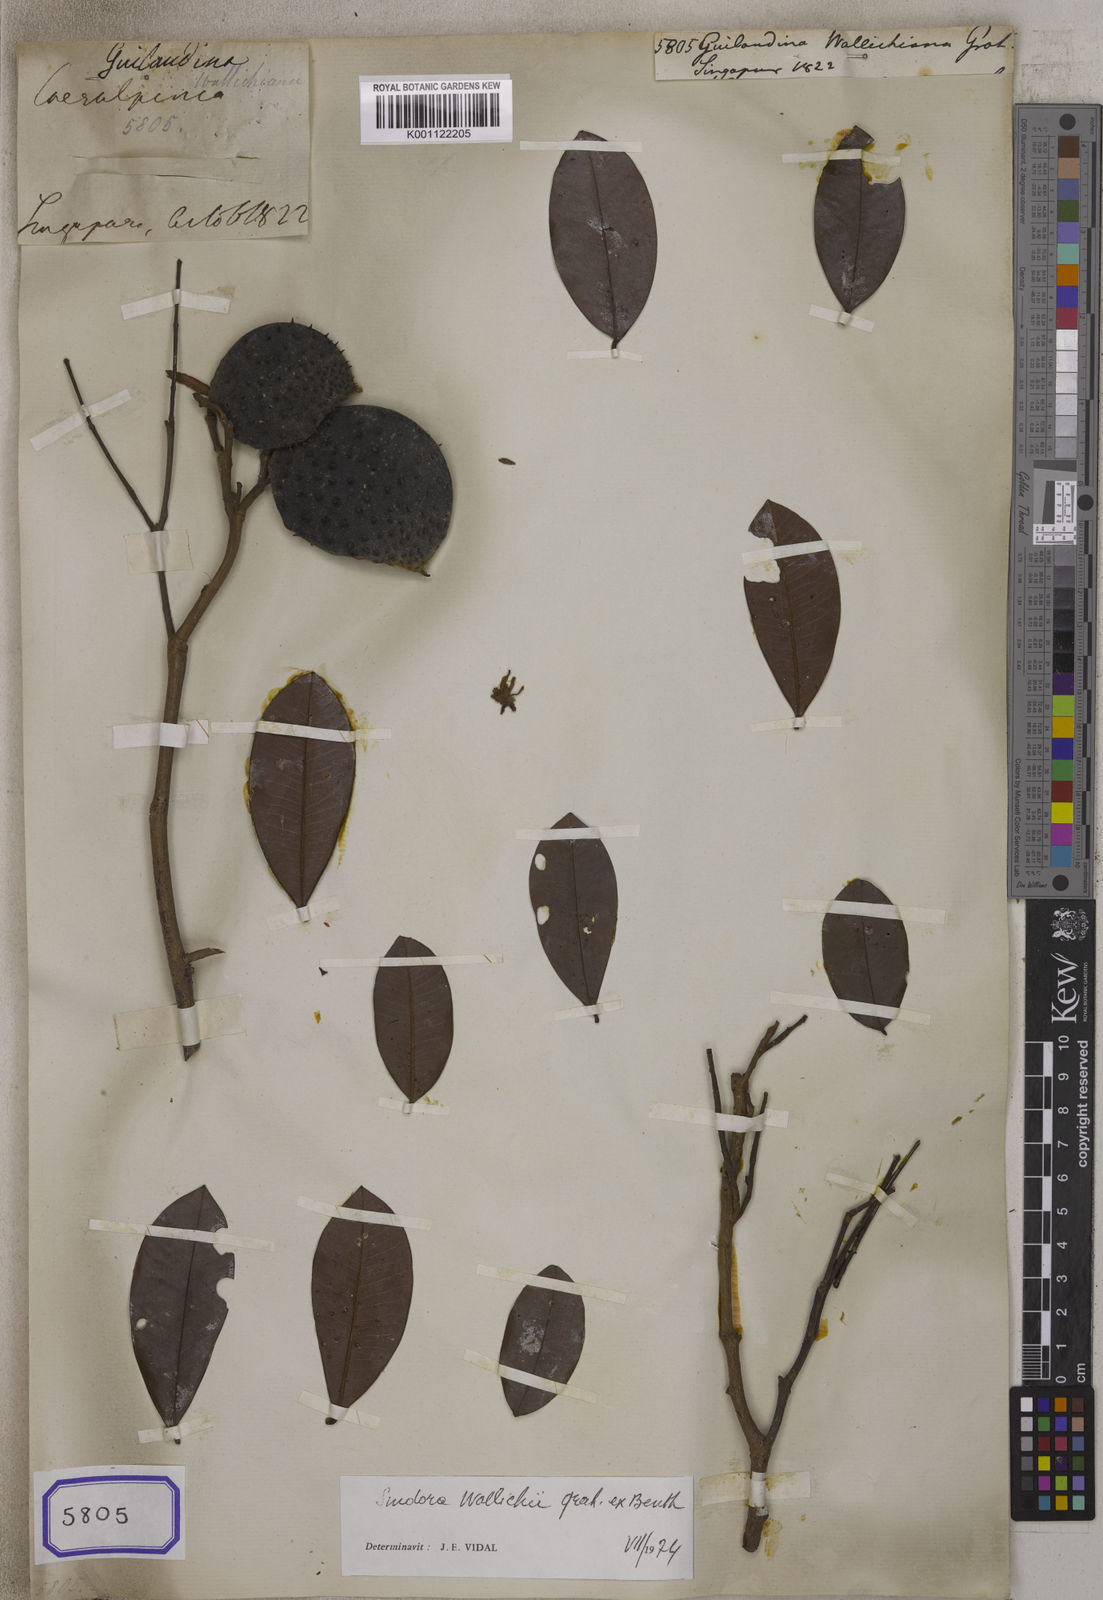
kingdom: Plantae
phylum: Tracheophyta
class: Magnoliopsida
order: Fabales
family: Fabaceae
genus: Guilandina
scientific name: Guilandina
